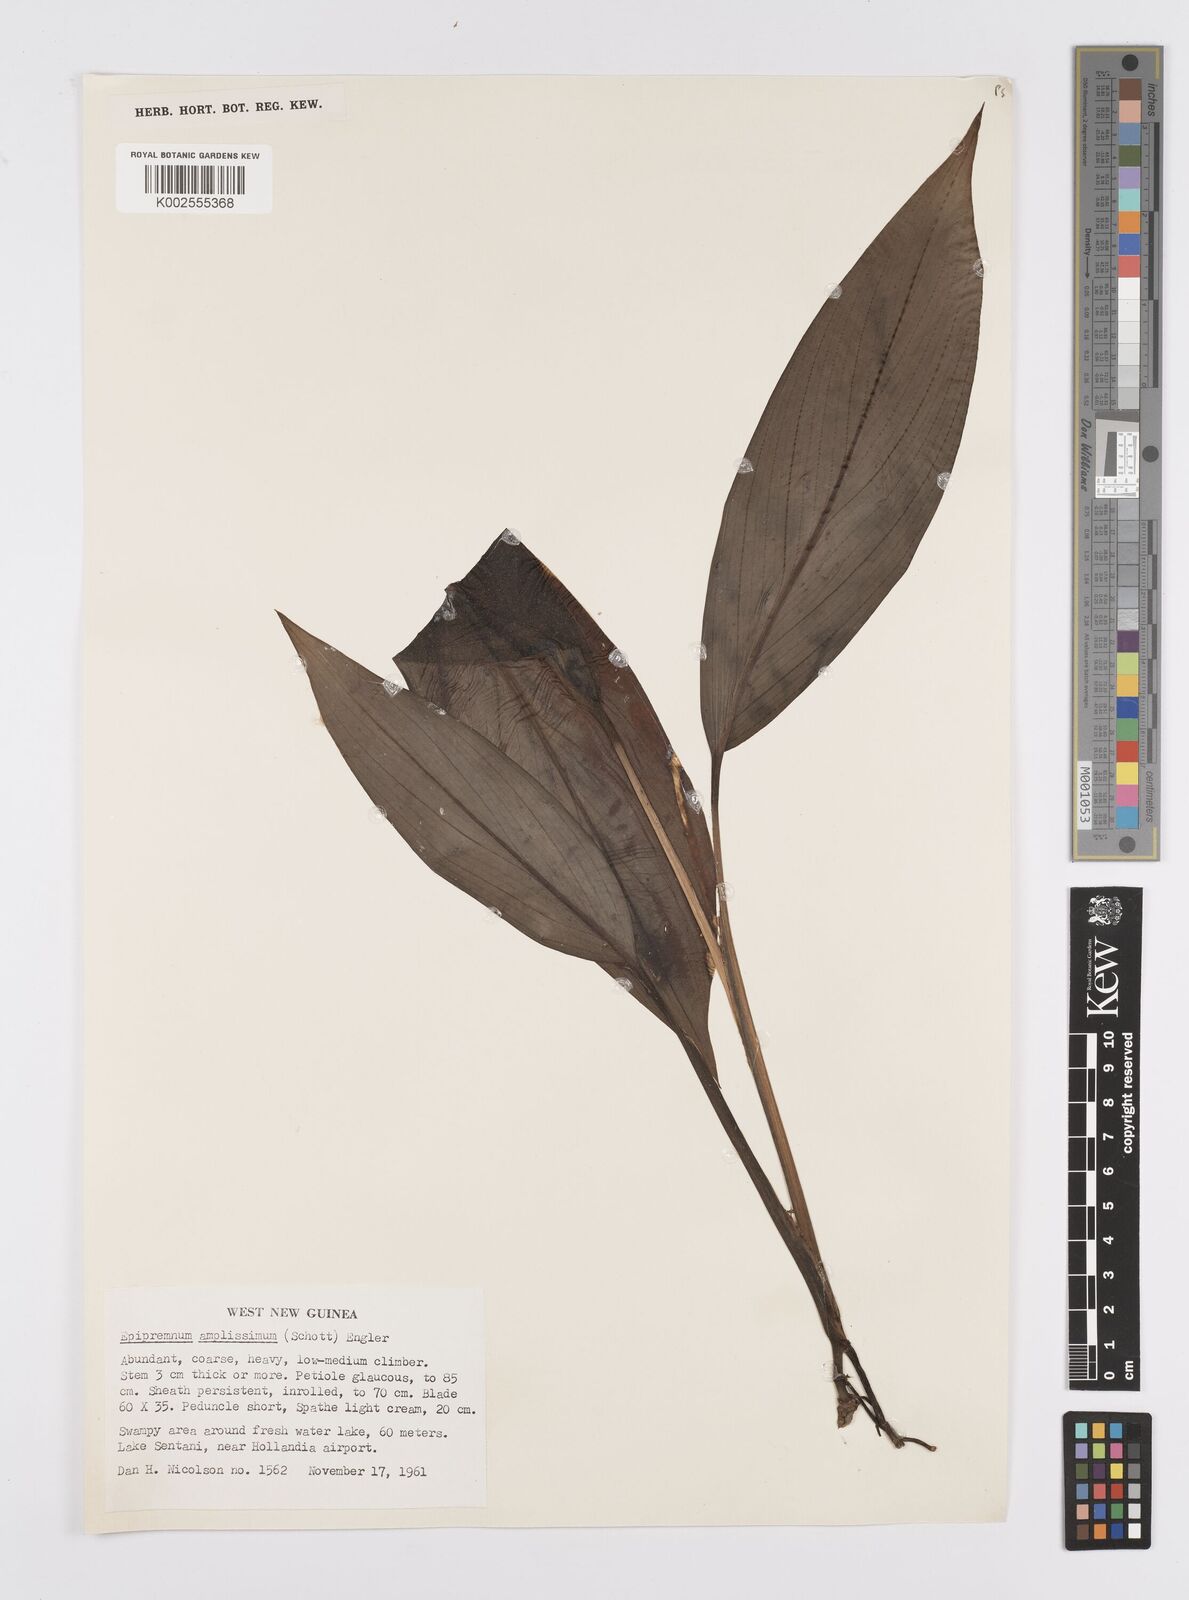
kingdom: Plantae
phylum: Tracheophyta
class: Liliopsida
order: Alismatales
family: Araceae
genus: Epipremnum
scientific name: Epipremnum amplissimum
